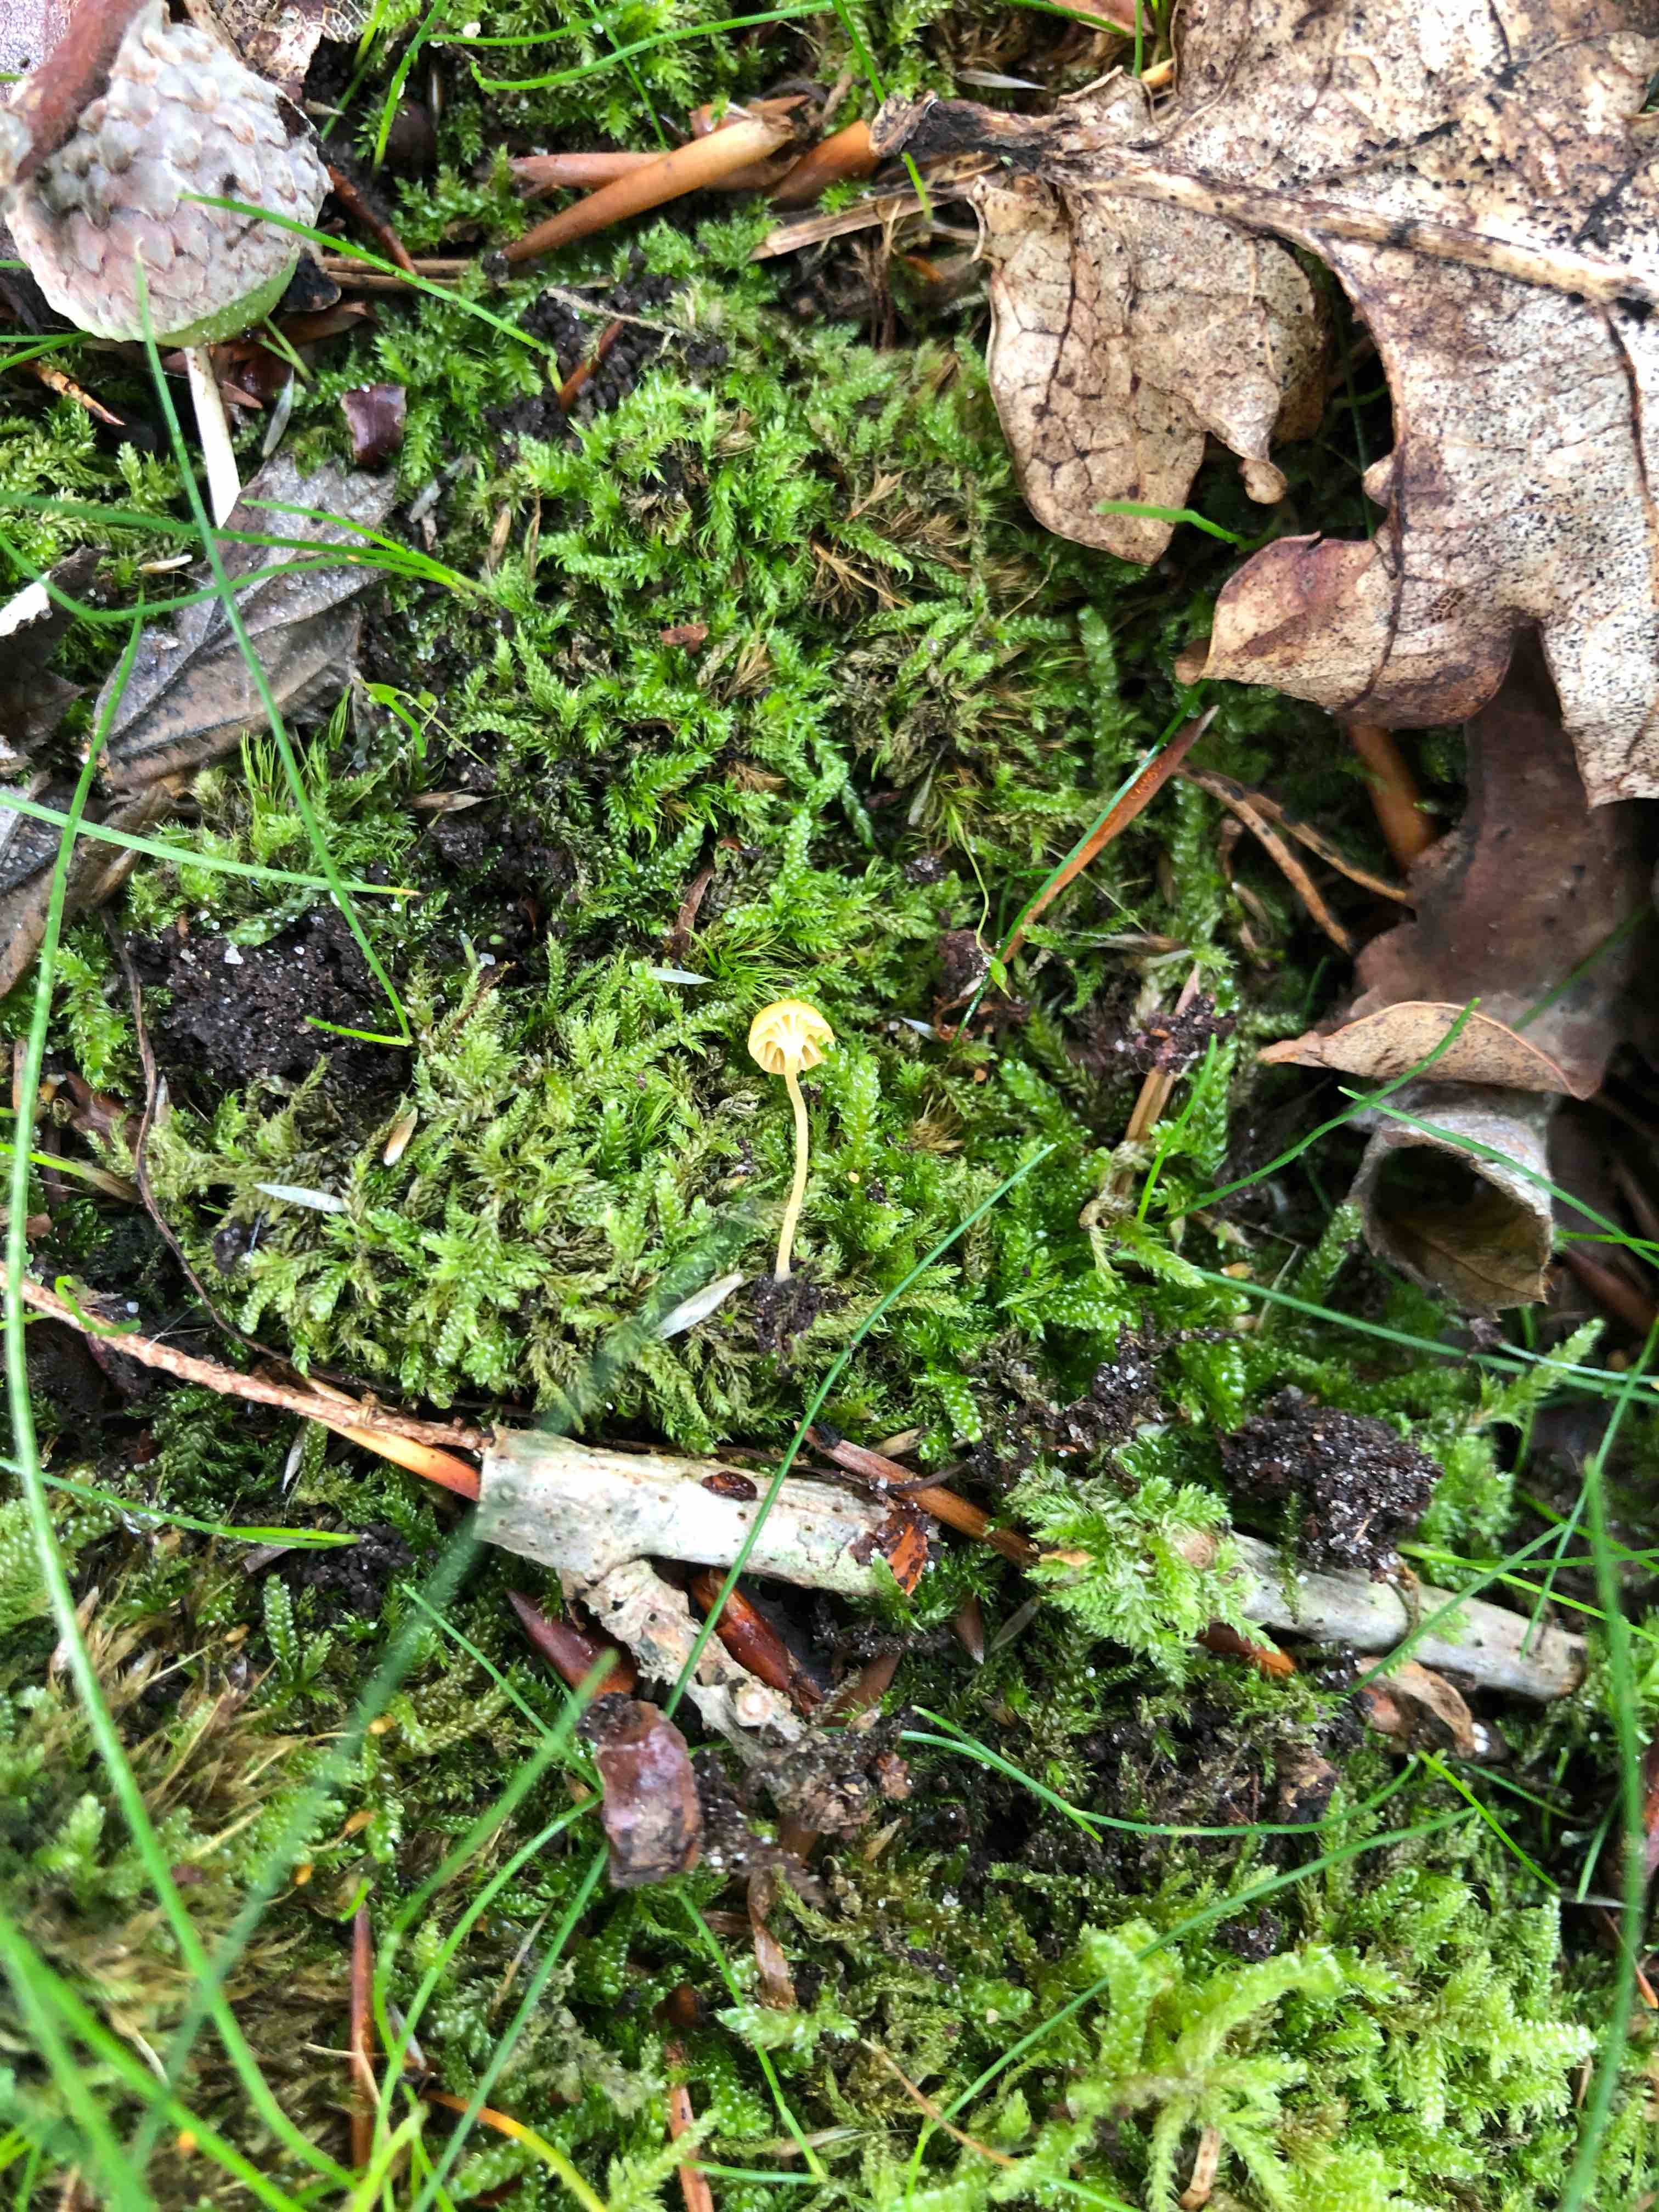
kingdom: Fungi
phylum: Basidiomycota
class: Agaricomycetes
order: Hymenochaetales
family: Rickenellaceae
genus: Rickenella
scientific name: Rickenella fibula
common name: orange mosnavlehat
